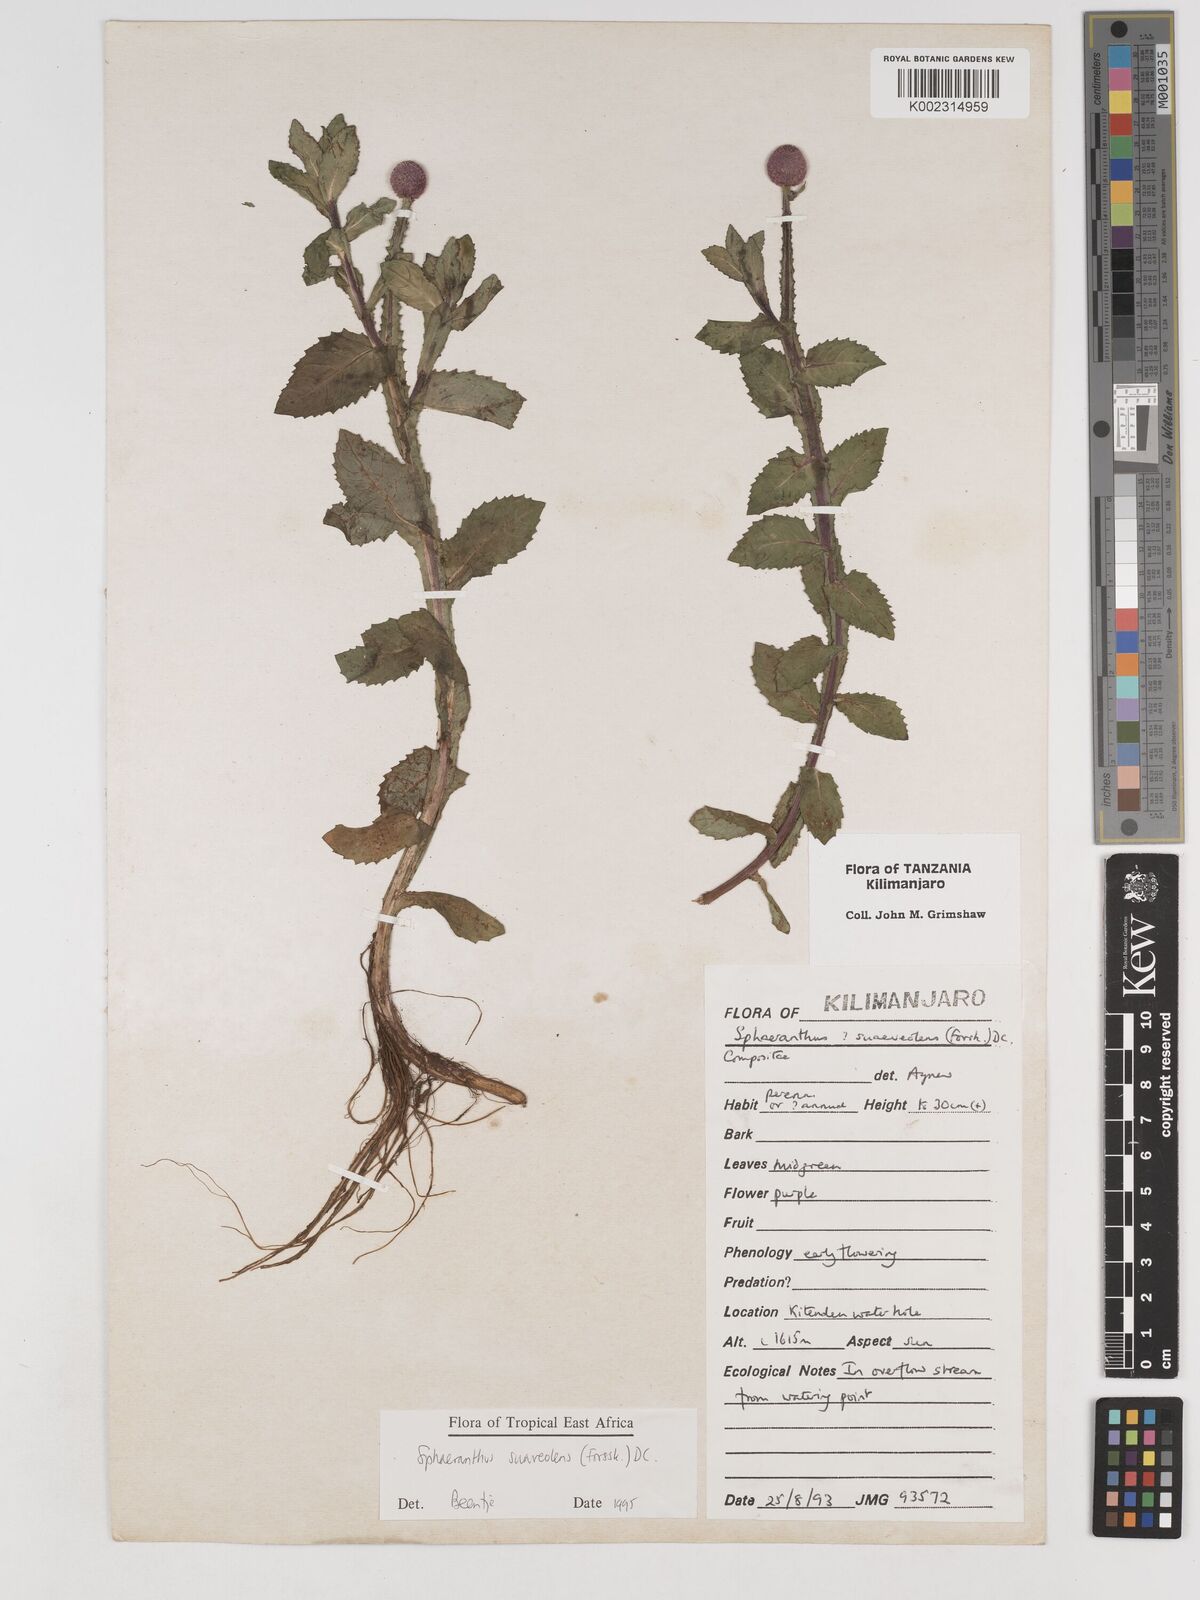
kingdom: Plantae
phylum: Tracheophyta
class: Magnoliopsida
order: Asterales
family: Asteraceae
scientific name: Asteraceae
